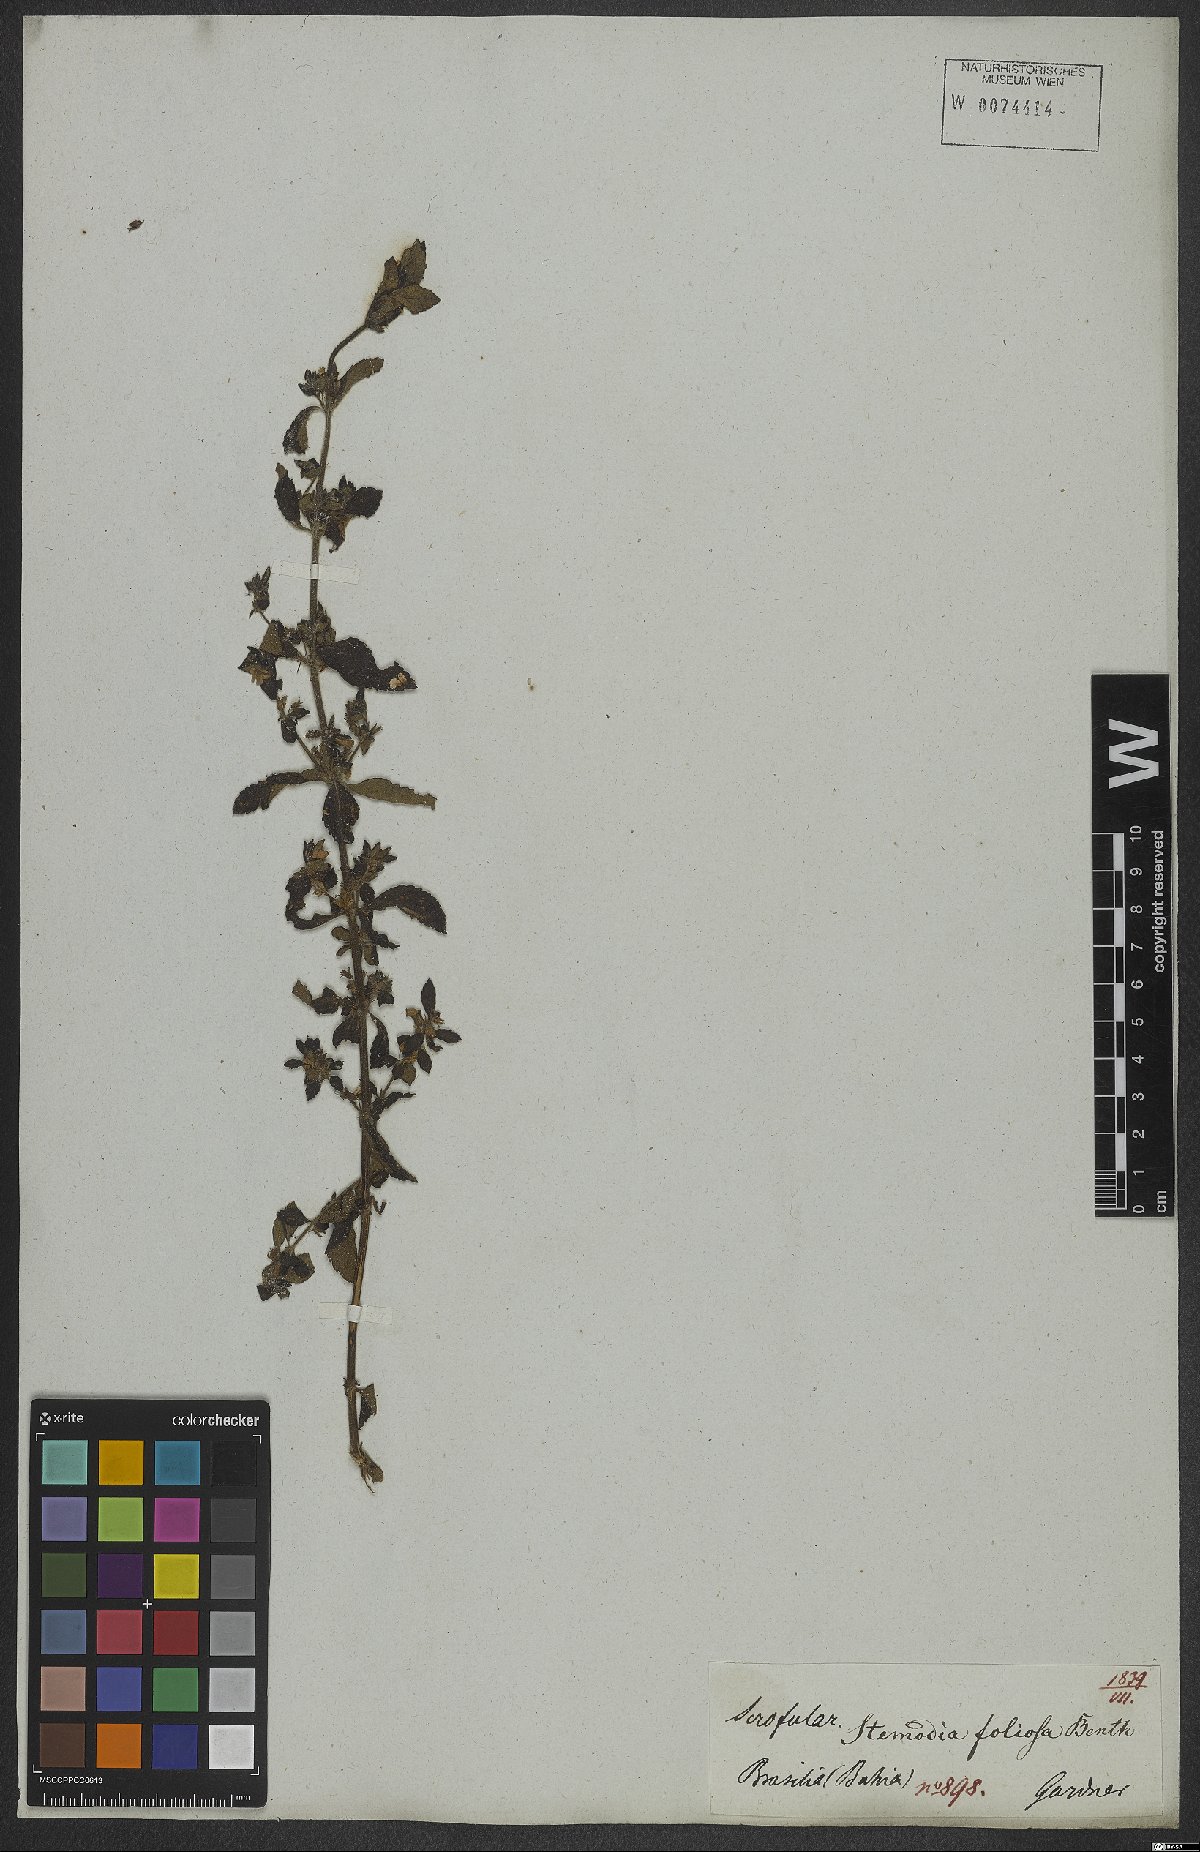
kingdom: Plantae
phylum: Tracheophyta
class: Magnoliopsida
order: Lamiales
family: Plantaginaceae
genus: Stemodia
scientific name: Stemodia foliosa
